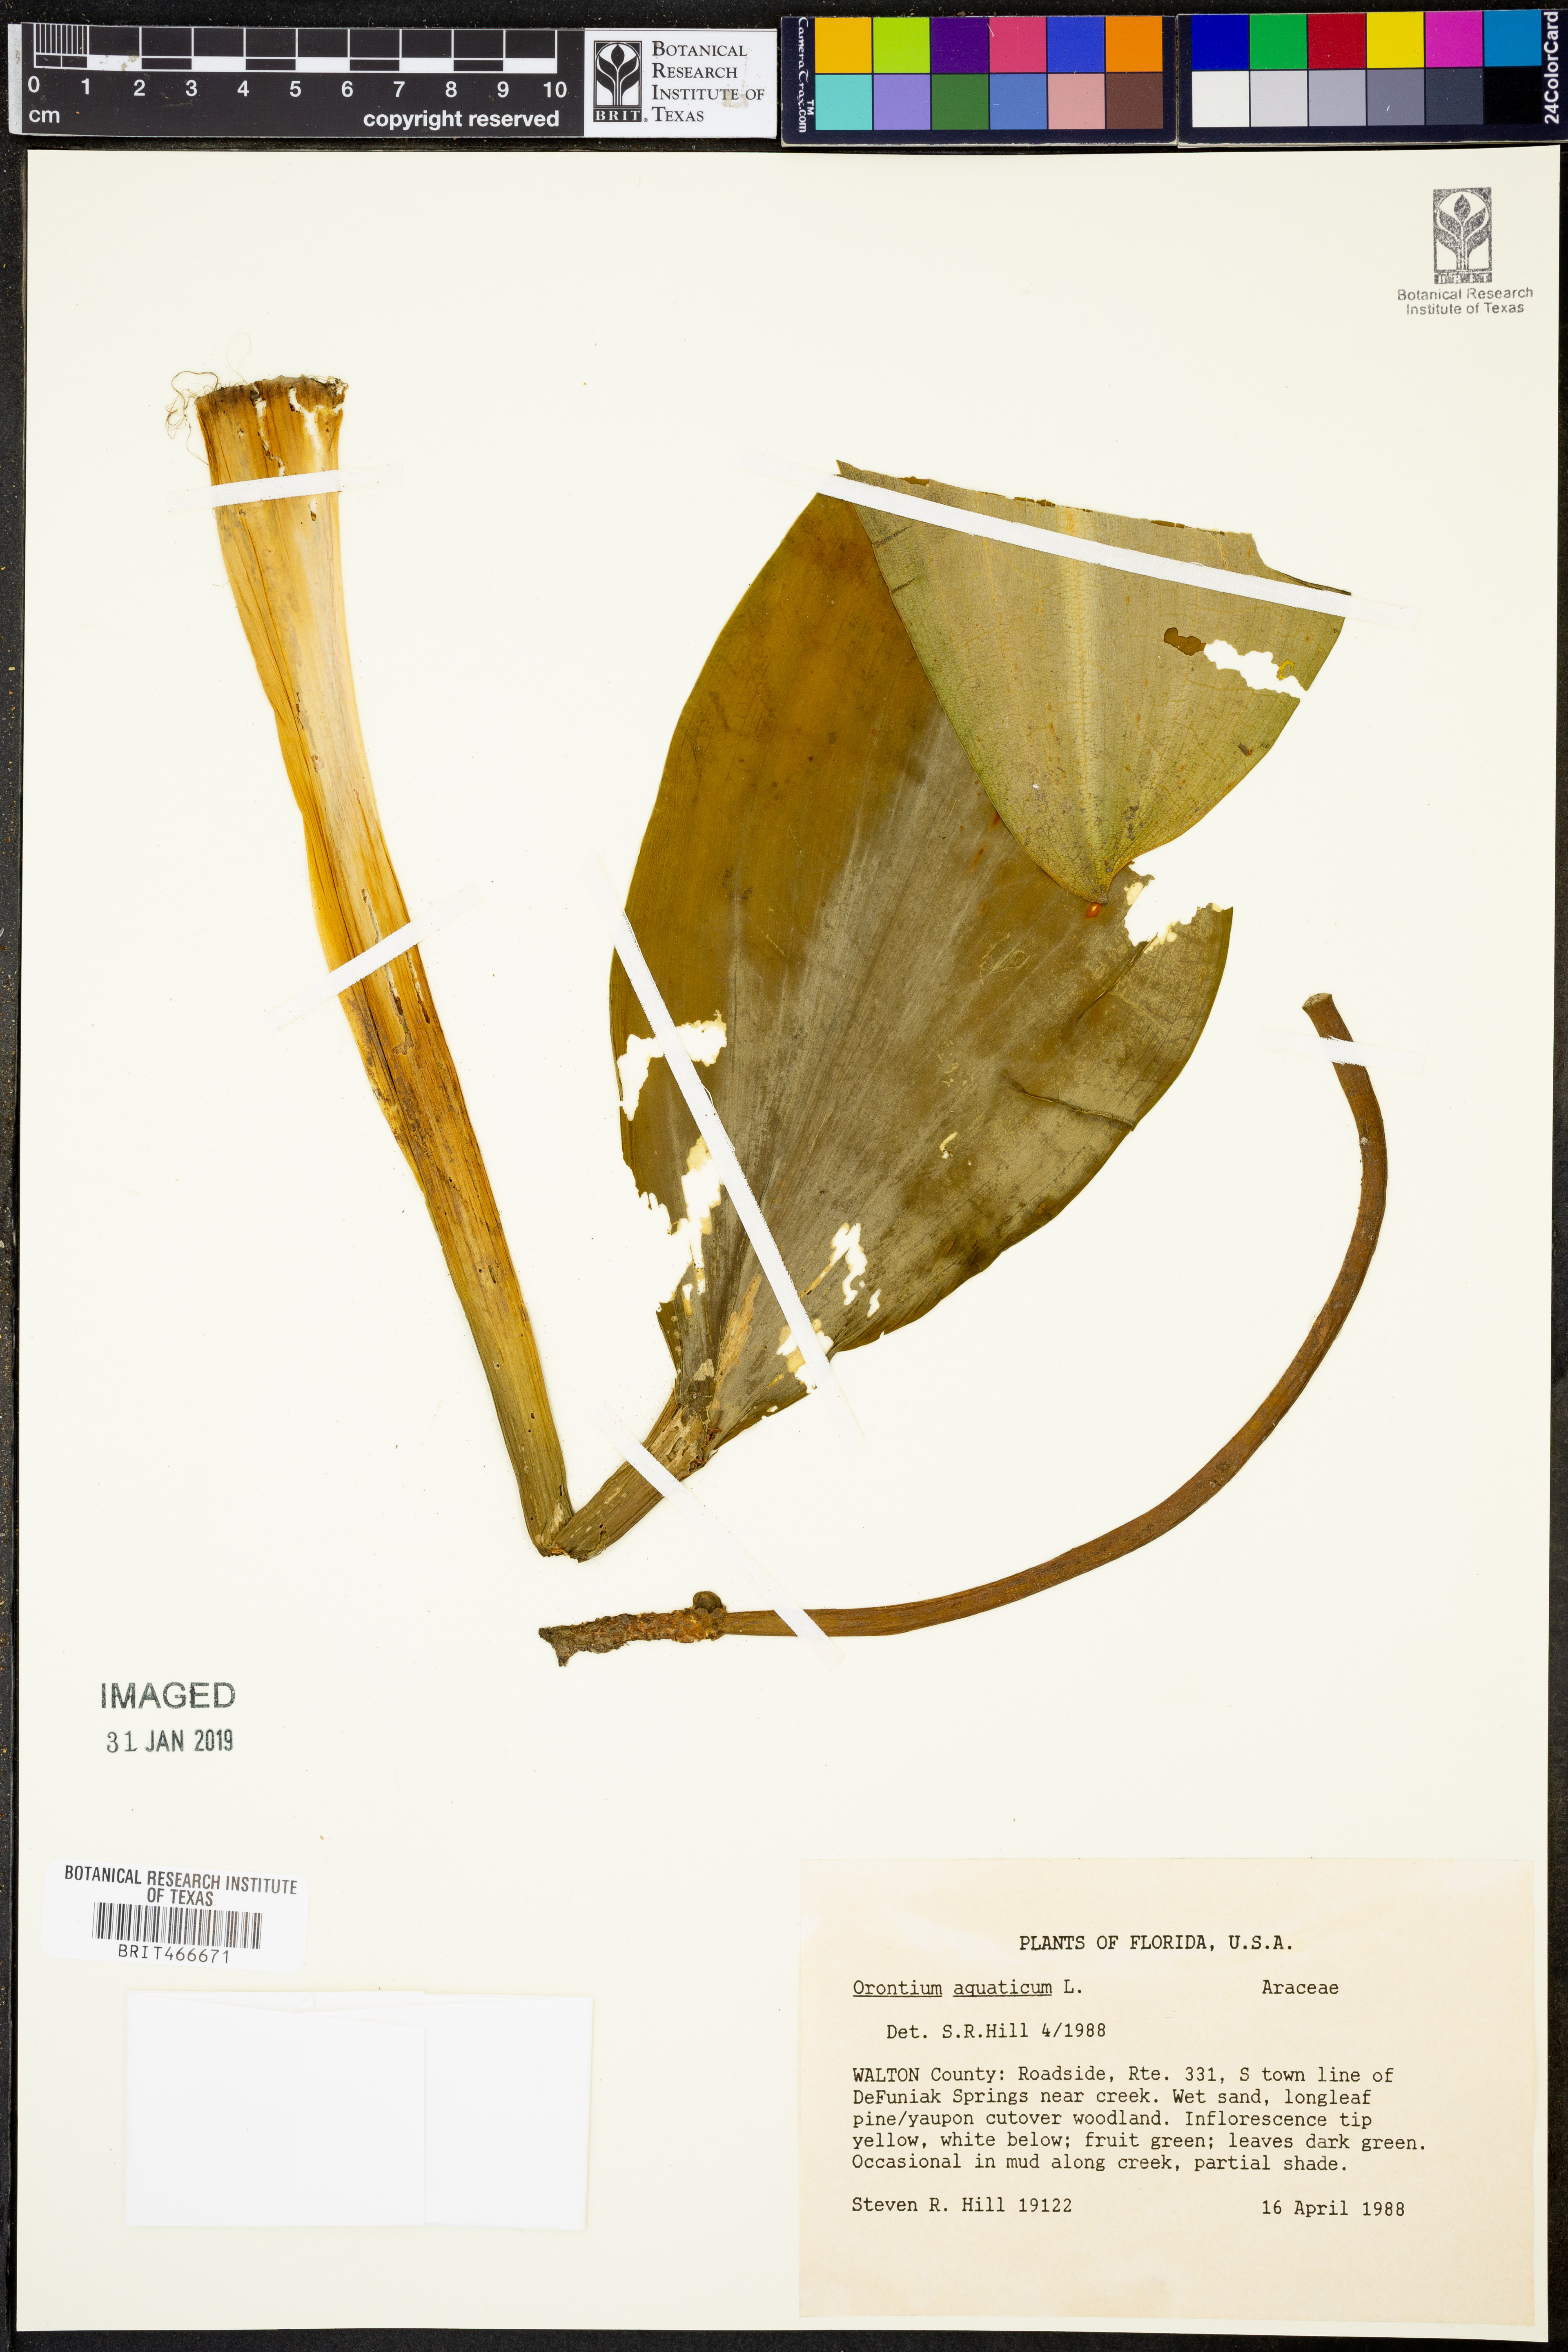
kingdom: Plantae
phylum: Tracheophyta
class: Liliopsida
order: Alismatales
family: Araceae
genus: Orontium
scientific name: Orontium aquaticum
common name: Golden-club
